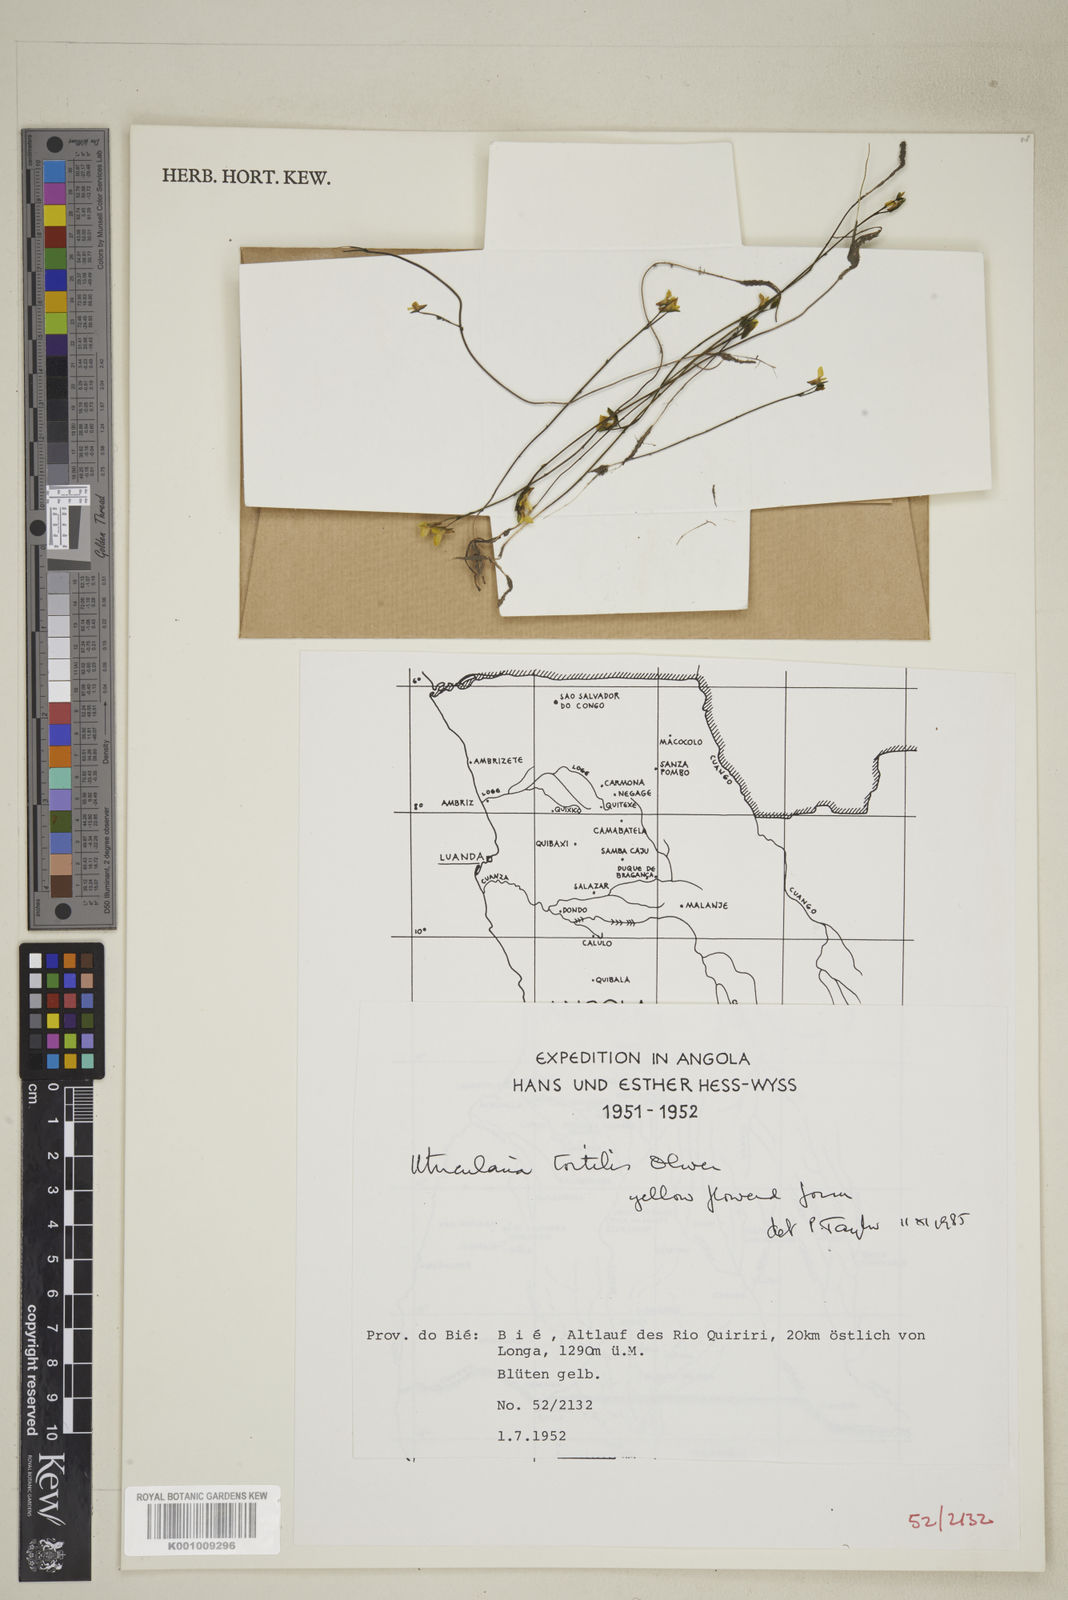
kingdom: Plantae
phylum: Tracheophyta
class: Magnoliopsida
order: Lamiales
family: Lentibulariaceae
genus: Utricularia
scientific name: Utricularia tortilis
